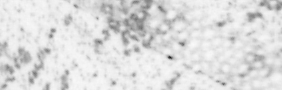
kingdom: Animalia
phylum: Chordata
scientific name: Chordata
